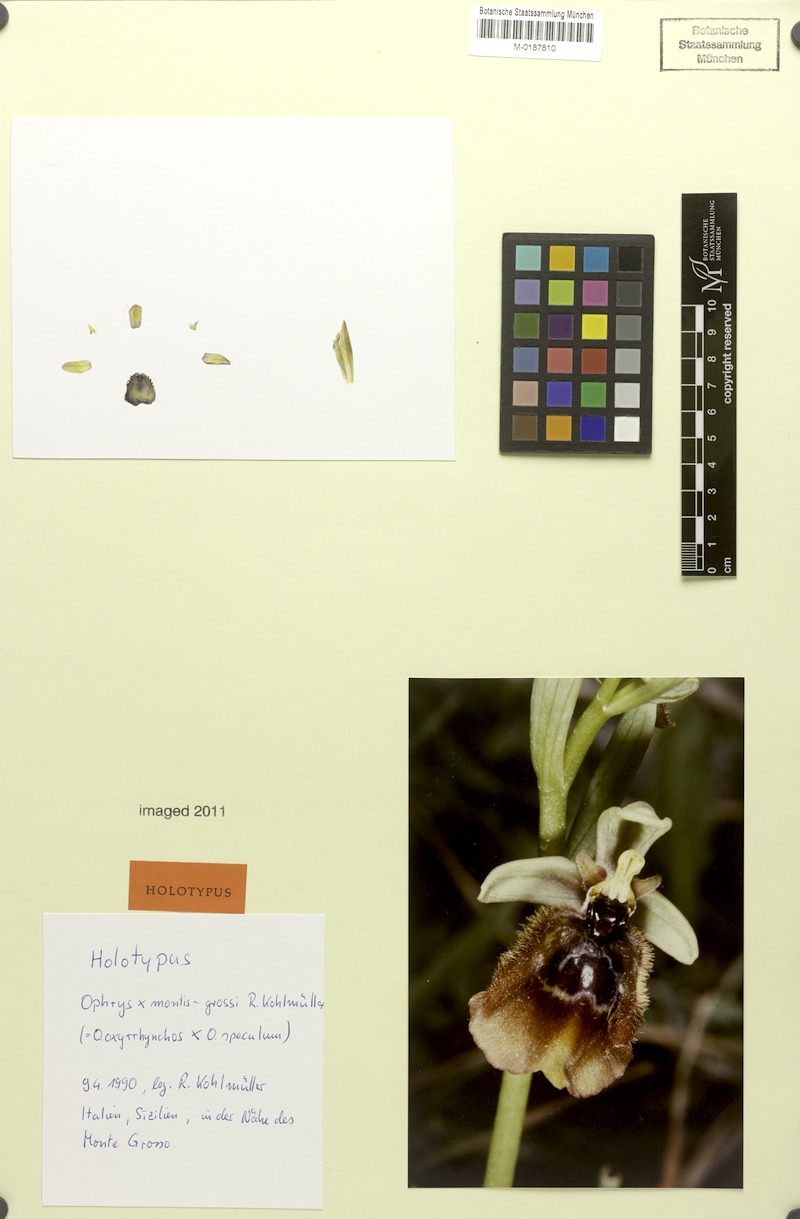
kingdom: Plantae
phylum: Tracheophyta
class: Liliopsida
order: Asparagales
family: Orchidaceae
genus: Ophrys
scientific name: Ophrys montis-grossi
